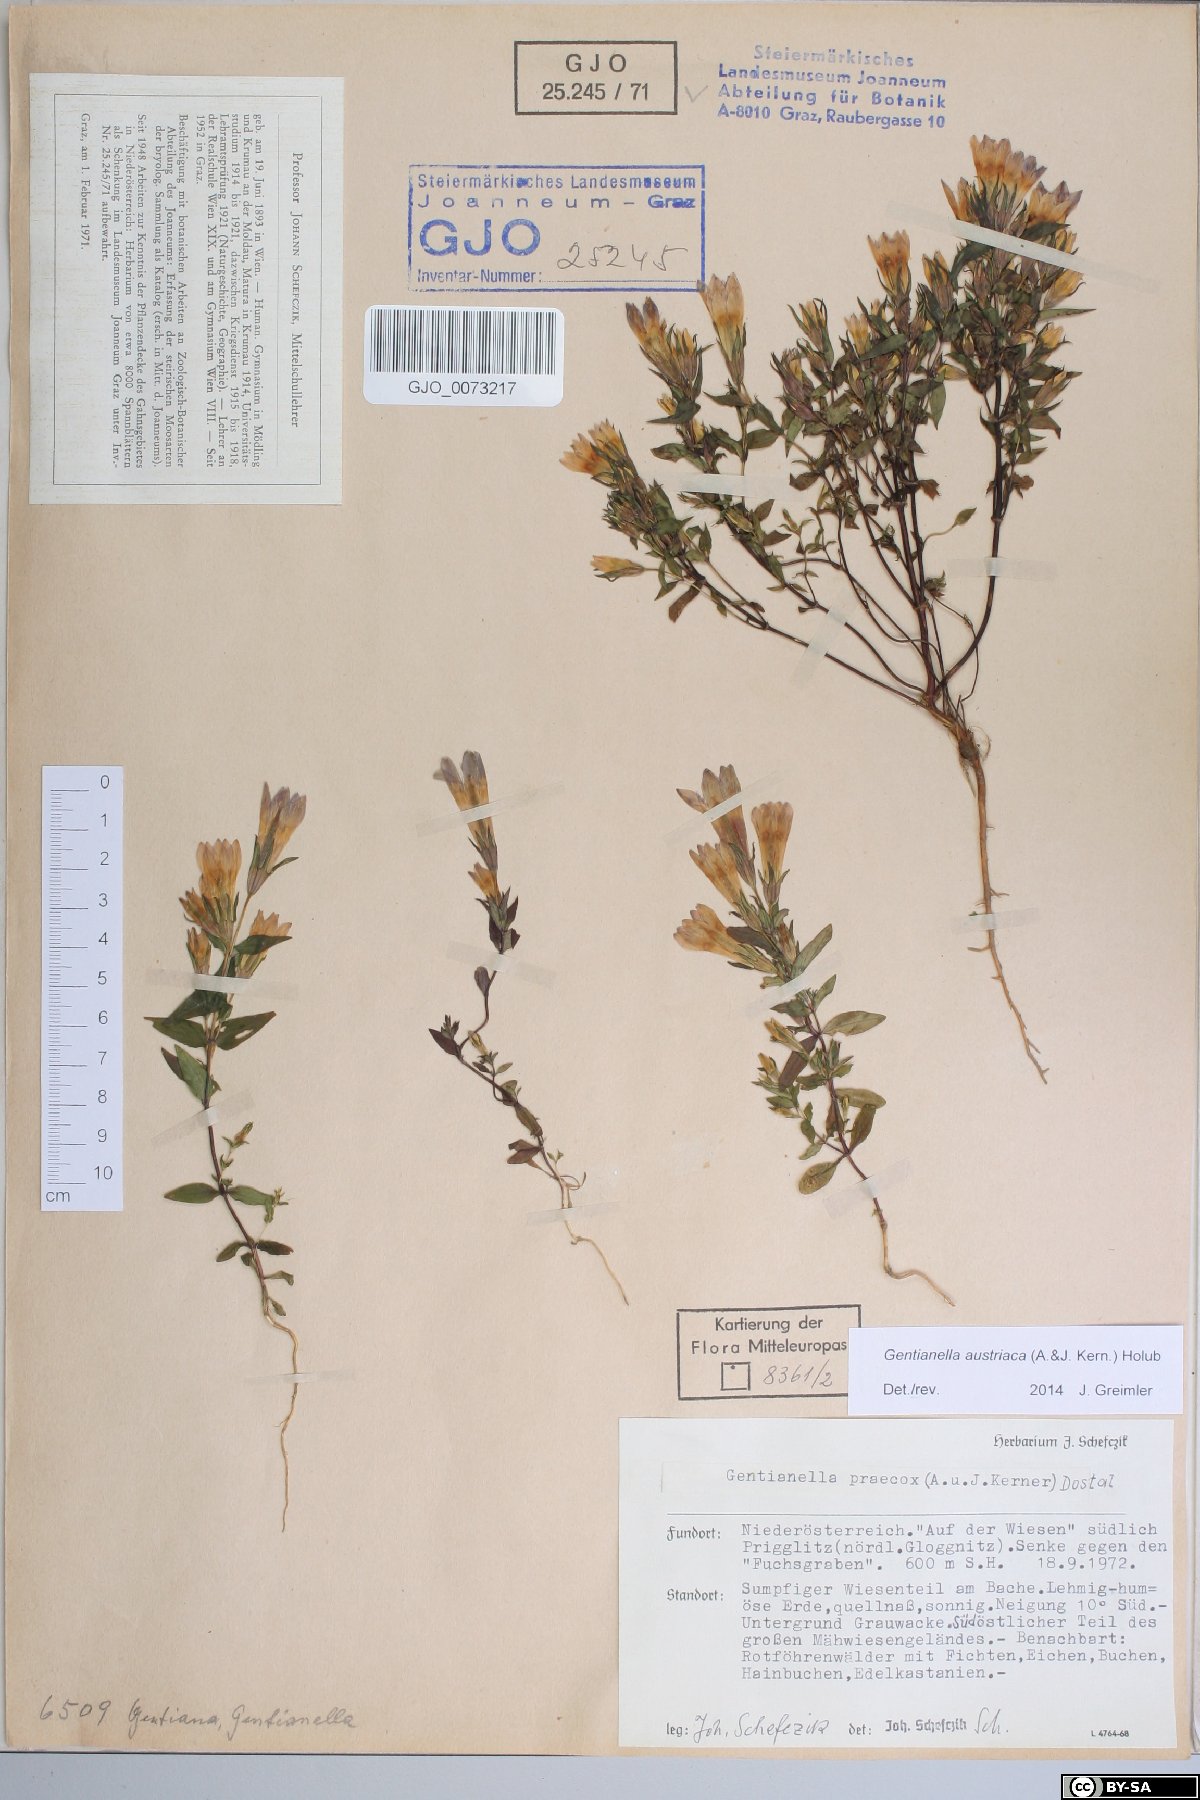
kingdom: Plantae
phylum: Tracheophyta
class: Magnoliopsida
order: Gentianales
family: Gentianaceae
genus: Gentianella
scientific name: Gentianella austriaca
